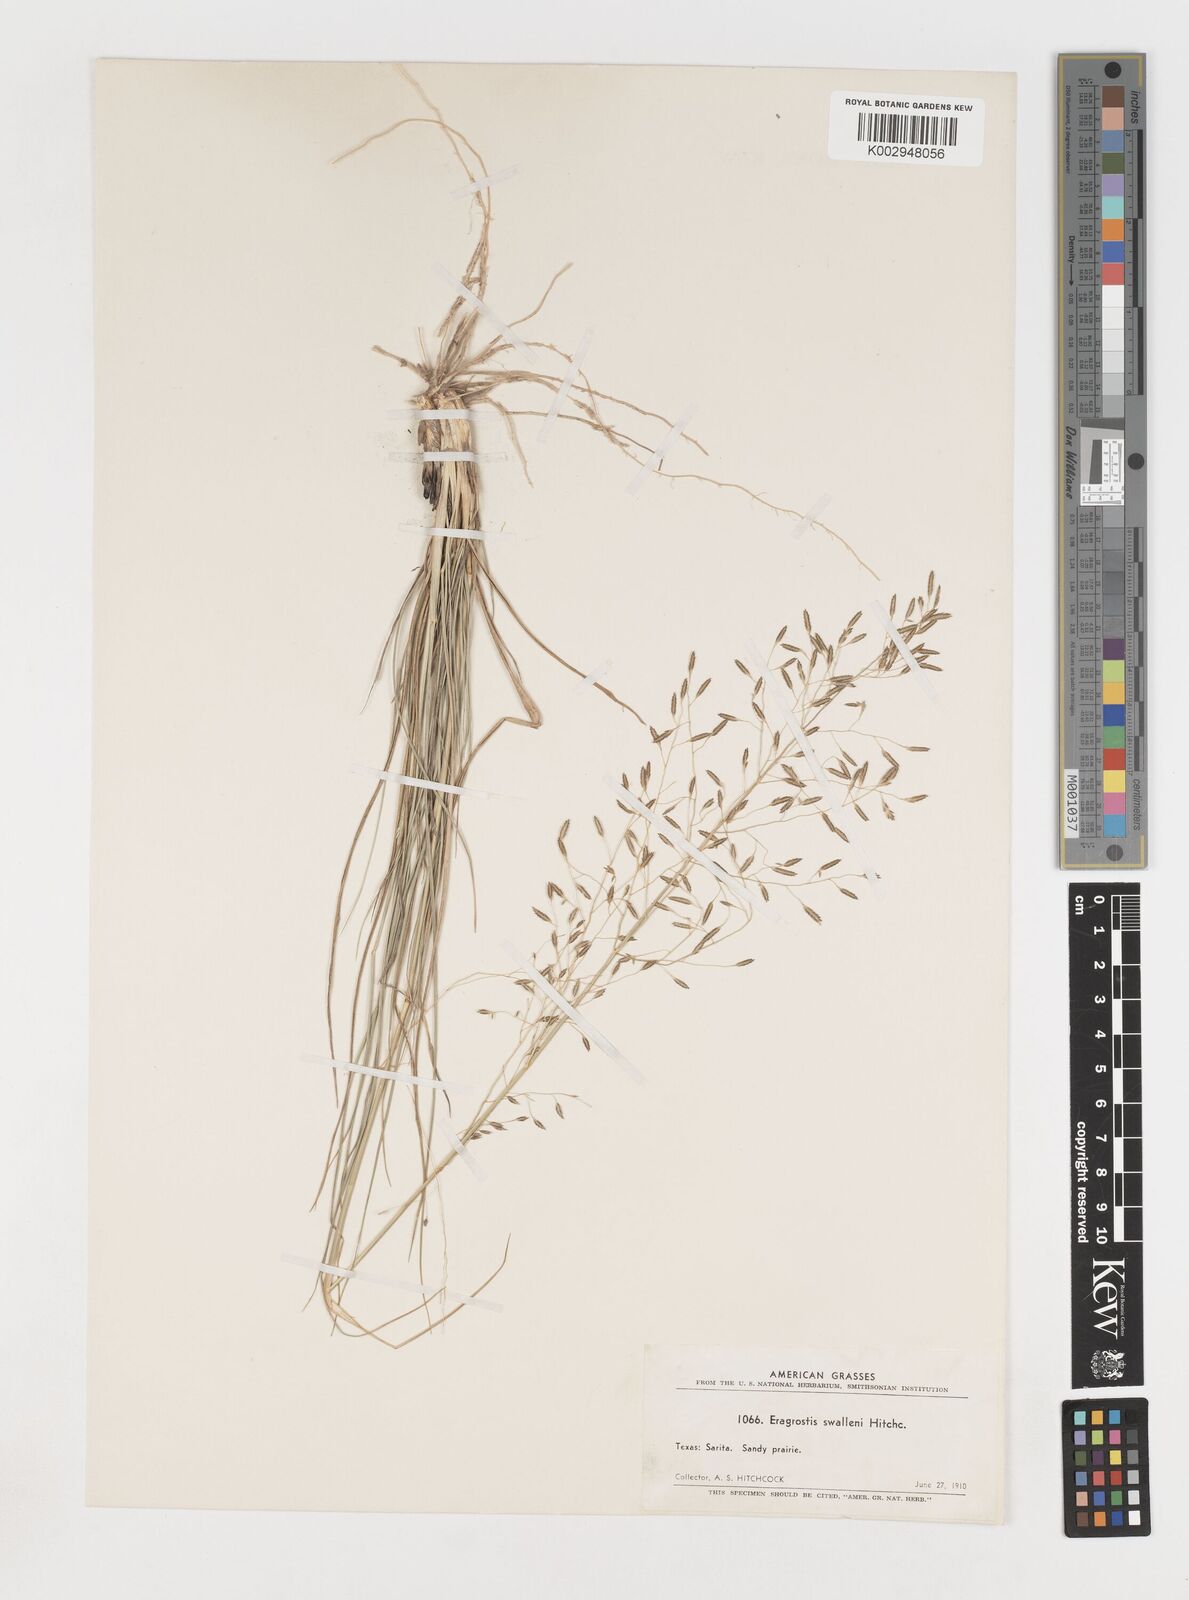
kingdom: Plantae
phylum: Tracheophyta
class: Liliopsida
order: Poales
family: Poaceae
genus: Eragrostis
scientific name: Eragrostis swallenii
